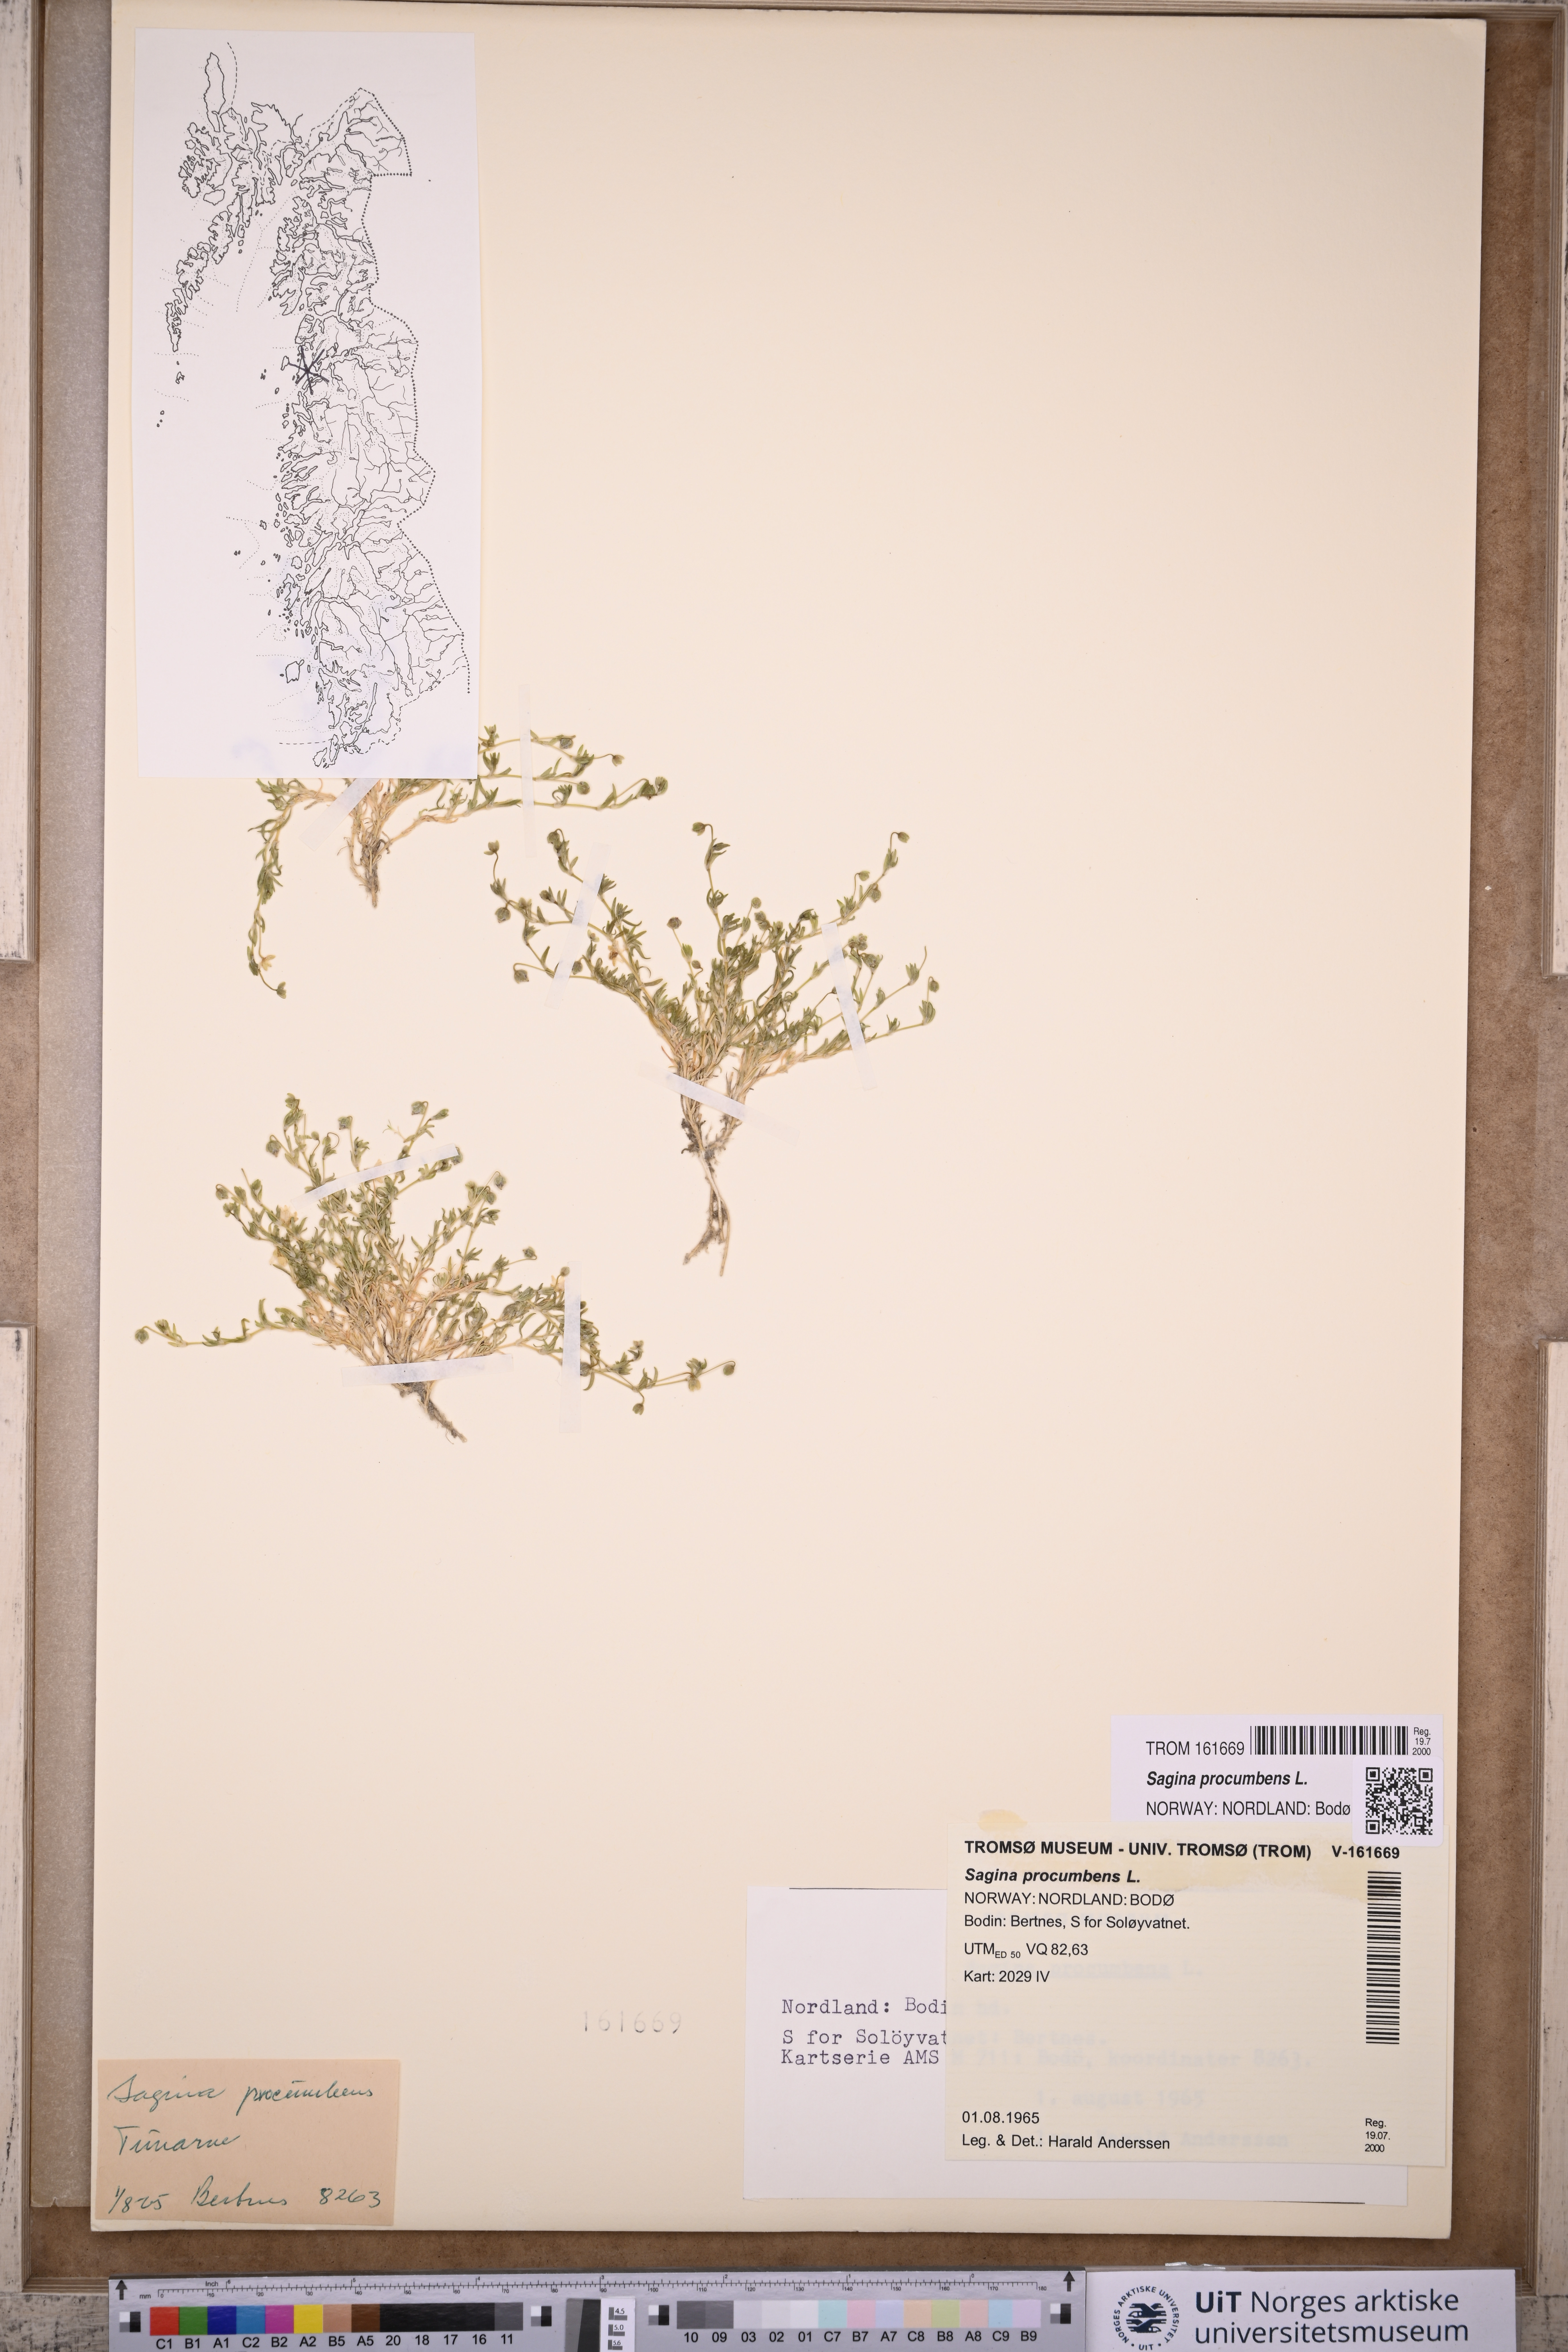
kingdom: Plantae
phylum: Tracheophyta
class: Magnoliopsida
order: Caryophyllales
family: Caryophyllaceae
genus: Sagina
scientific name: Sagina procumbens
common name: Procumbent pearlwort
